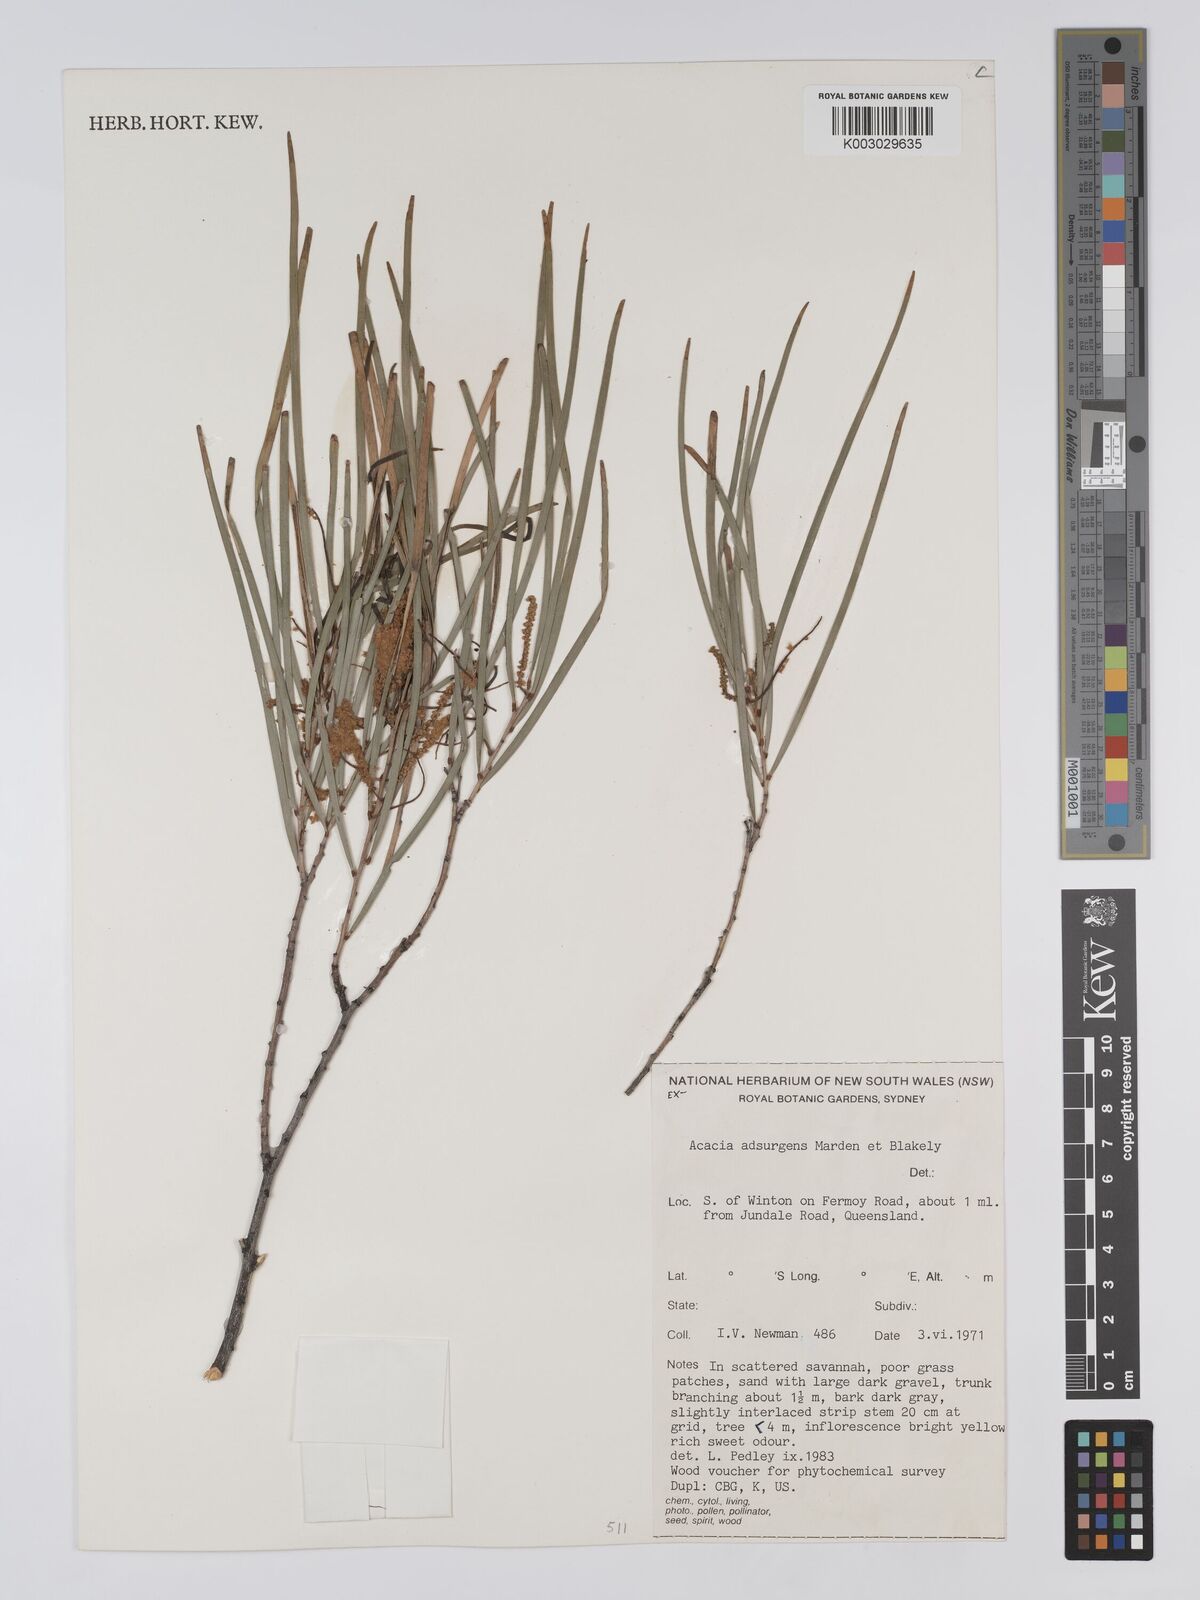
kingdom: Plantae
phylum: Tracheophyta
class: Magnoliopsida
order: Fabales
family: Fabaceae
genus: Acacia
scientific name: Acacia adsurgens
